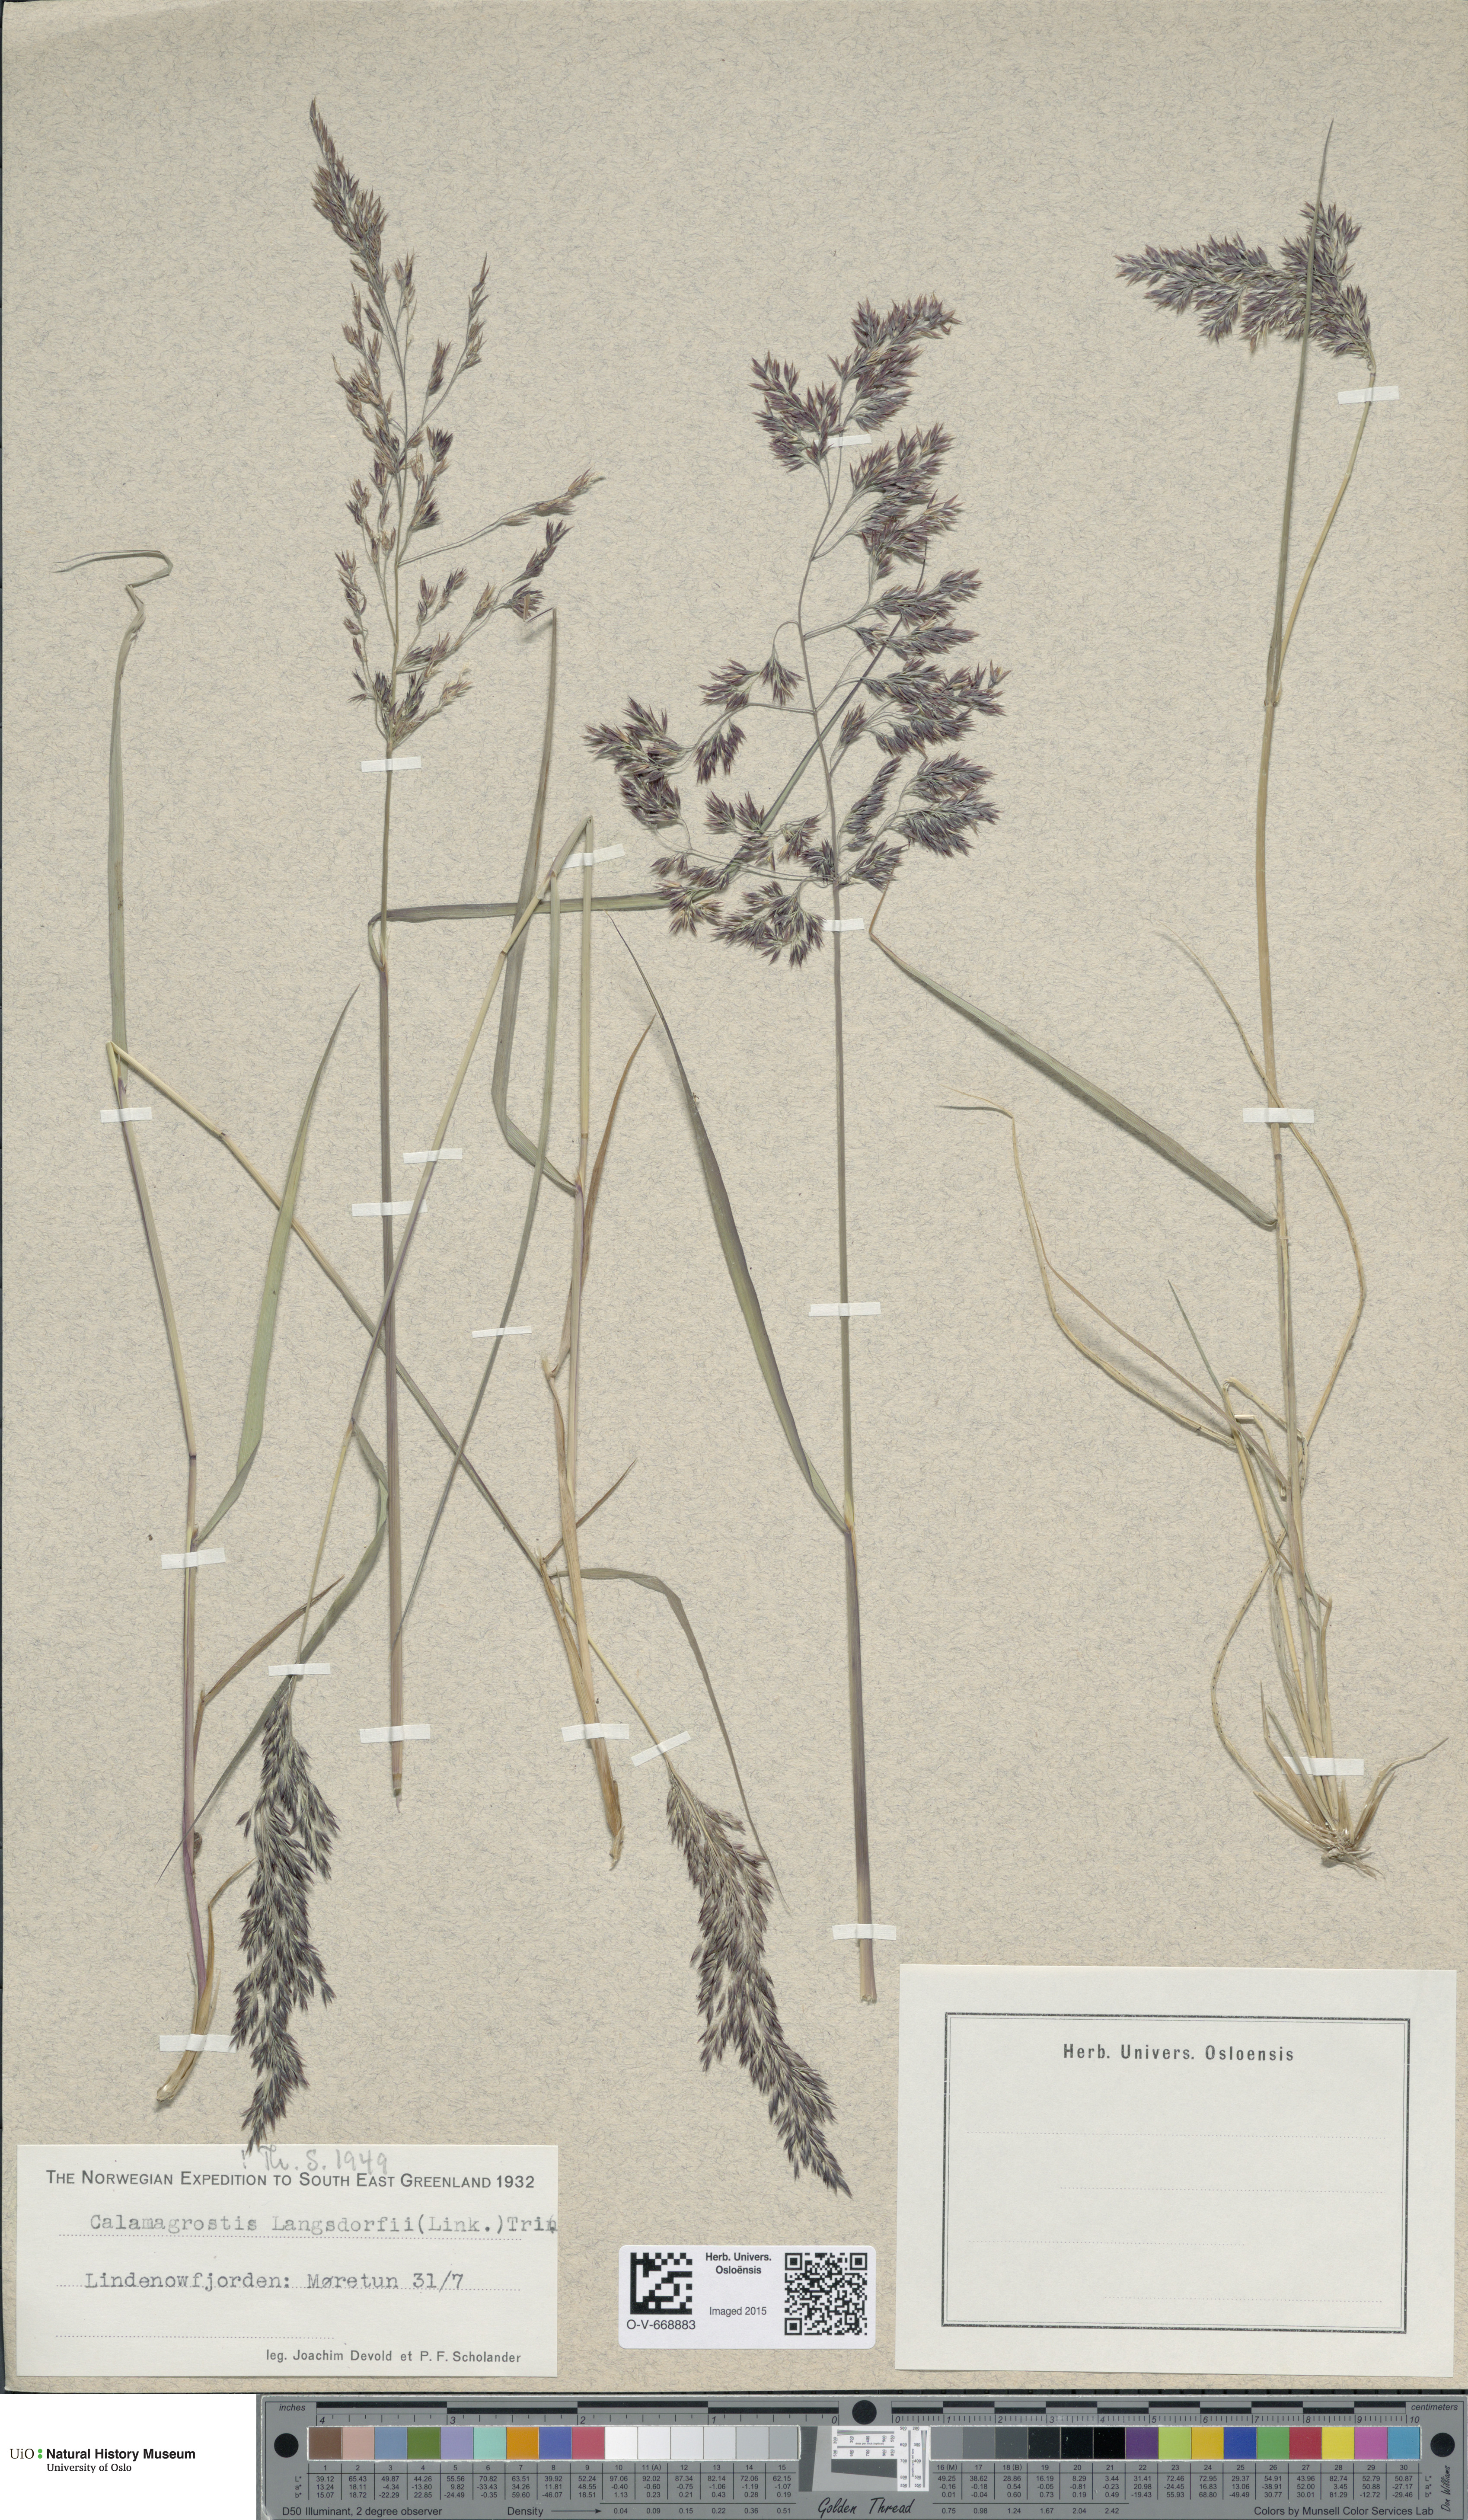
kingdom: Plantae
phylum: Tracheophyta
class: Liliopsida
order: Poales
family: Poaceae
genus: Calamagrostis
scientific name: Calamagrostis purpurea
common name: Scandinavian small-reed
